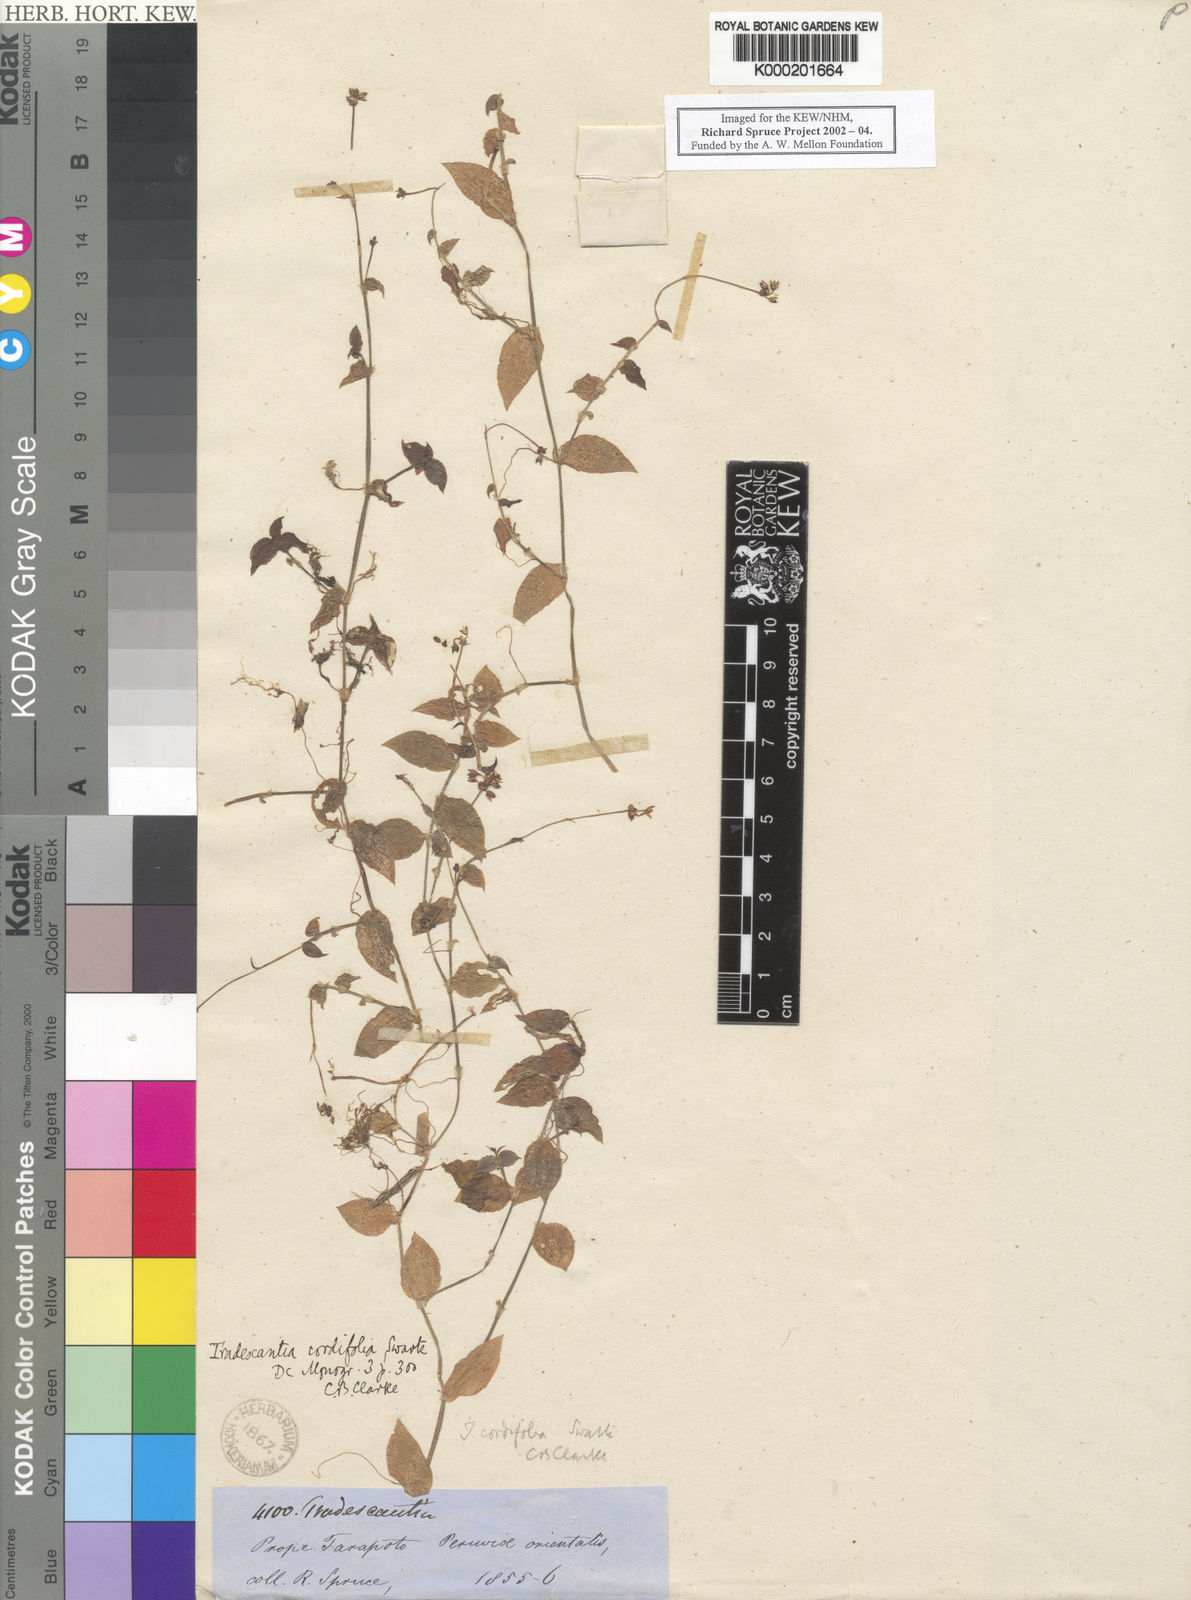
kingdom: Plantae
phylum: Tracheophyta
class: Liliopsida
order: Commelinales
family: Commelinaceae
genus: Callisia
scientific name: Callisia cordifolia
